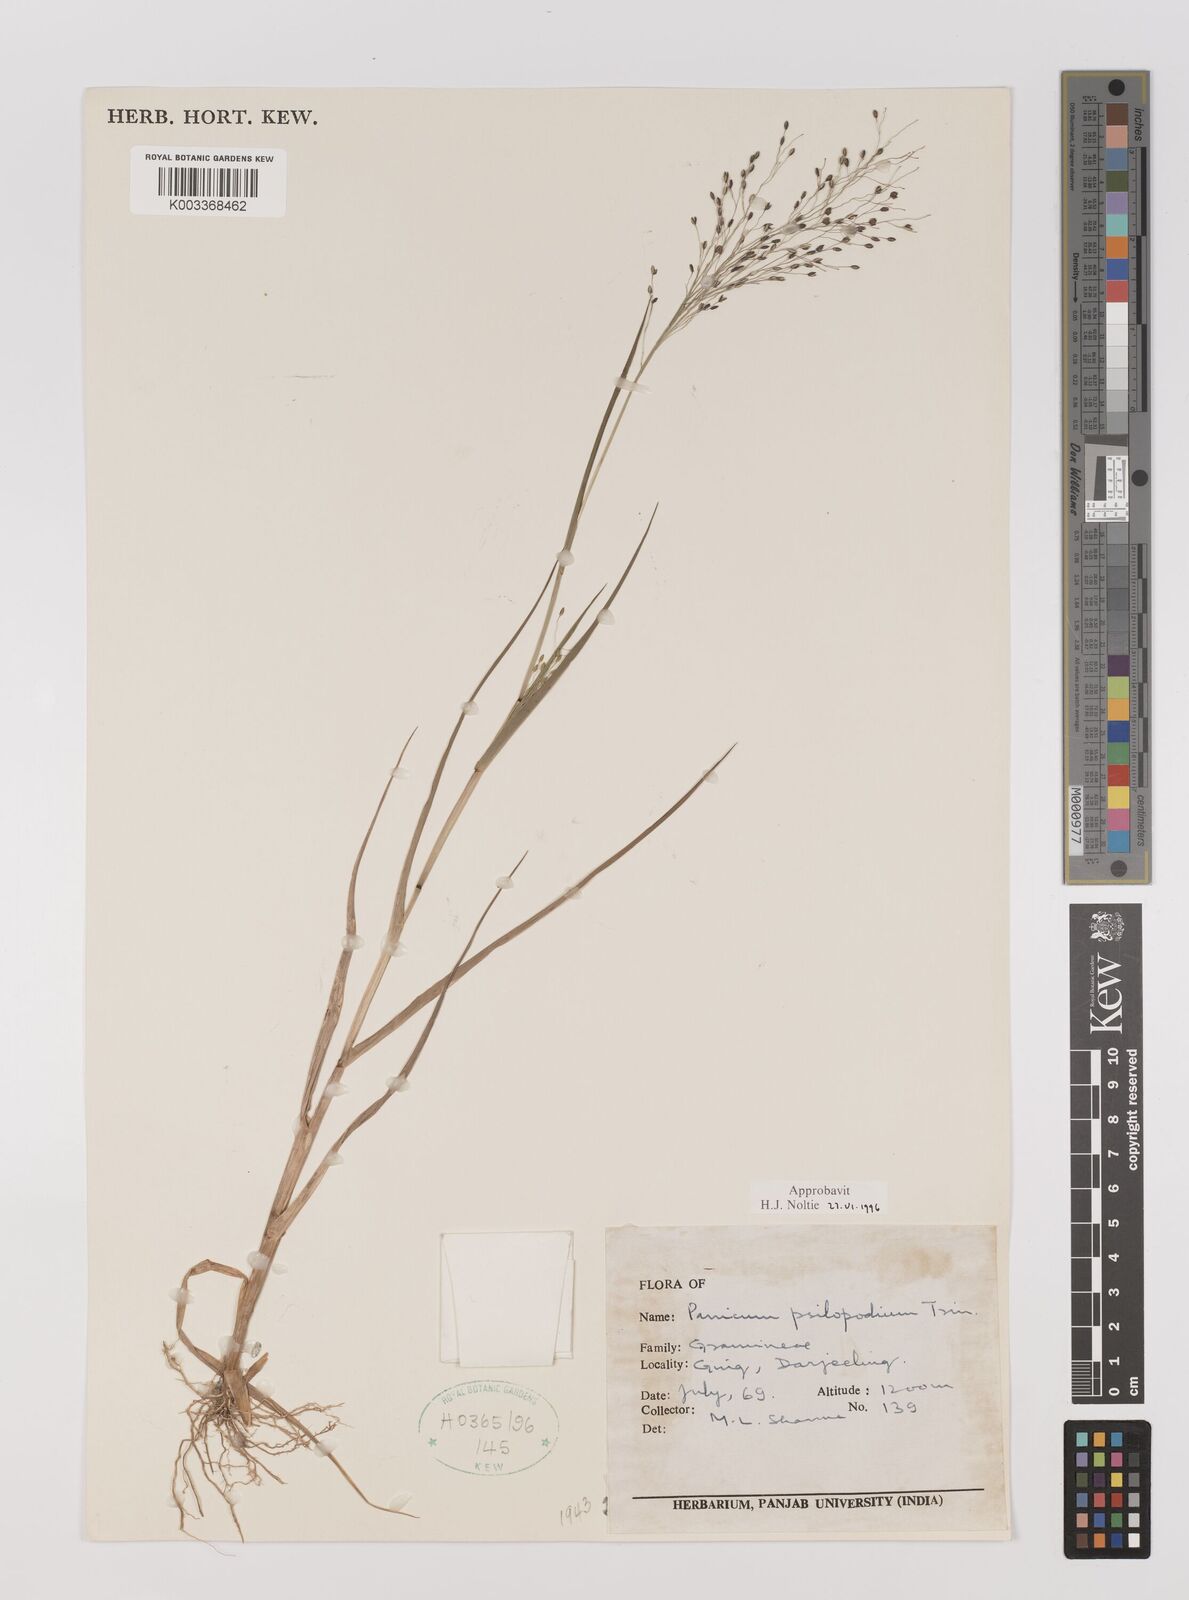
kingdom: Plantae
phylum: Tracheophyta
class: Liliopsida
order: Poales
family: Poaceae
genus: Panicum
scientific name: Panicum sumatrense
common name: Little millet
